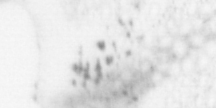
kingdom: Animalia
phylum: Chordata
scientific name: Chordata
